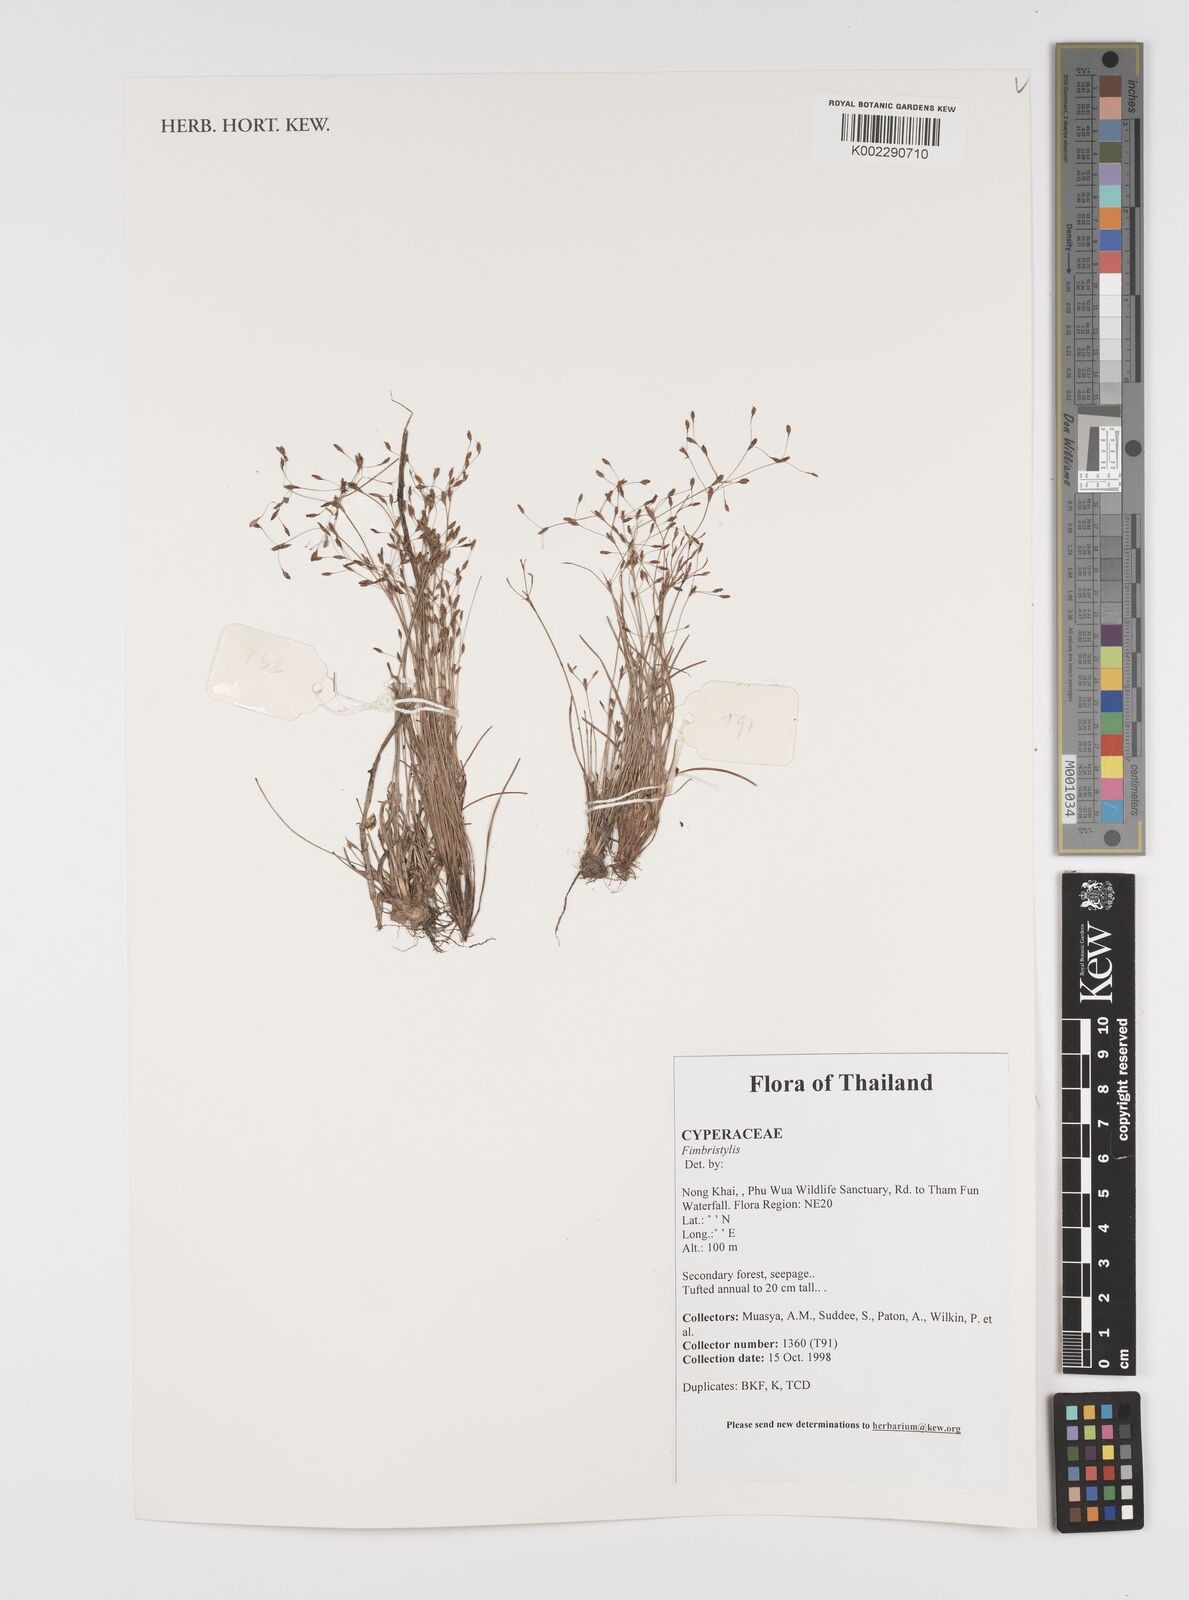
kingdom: Plantae
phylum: Tracheophyta
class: Liliopsida
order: Poales
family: Cyperaceae
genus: Fimbristylis
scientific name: Fimbristylis
